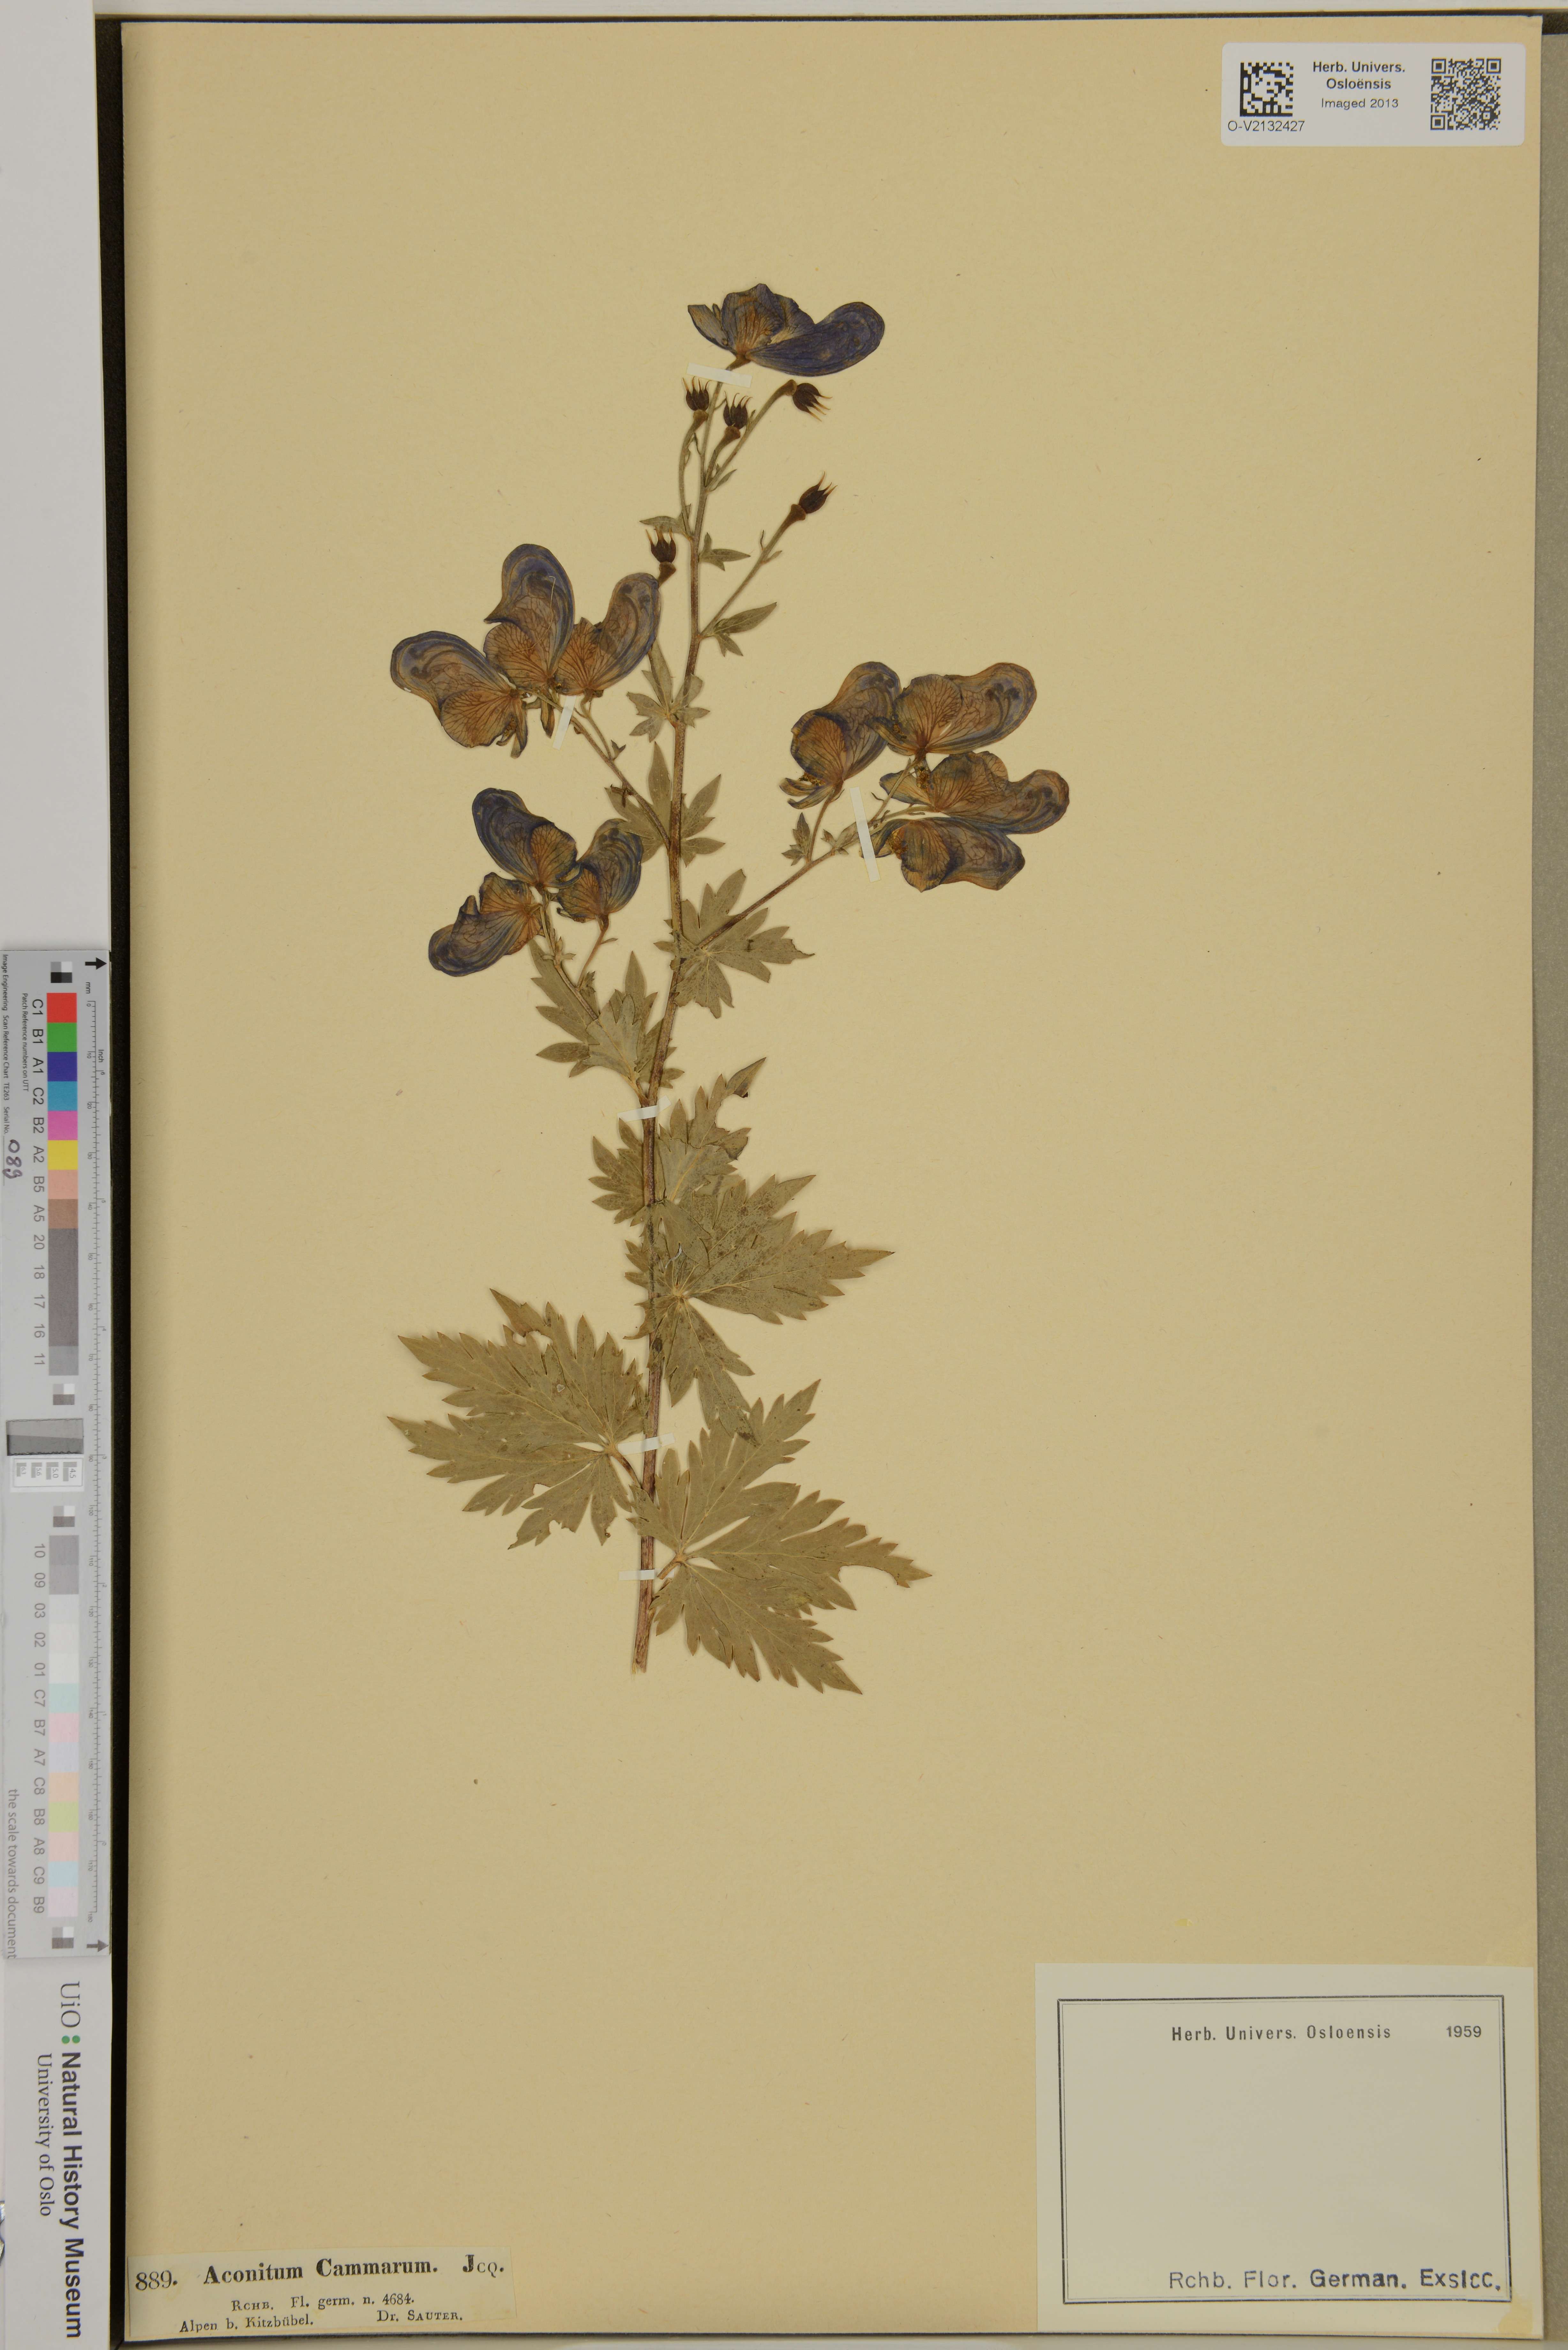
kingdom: Plantae
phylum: Tracheophyta
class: Magnoliopsida
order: Ranunculales
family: Ranunculaceae
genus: Aconitum
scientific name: Aconitum cammarum
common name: Hybrid monk's-hood
